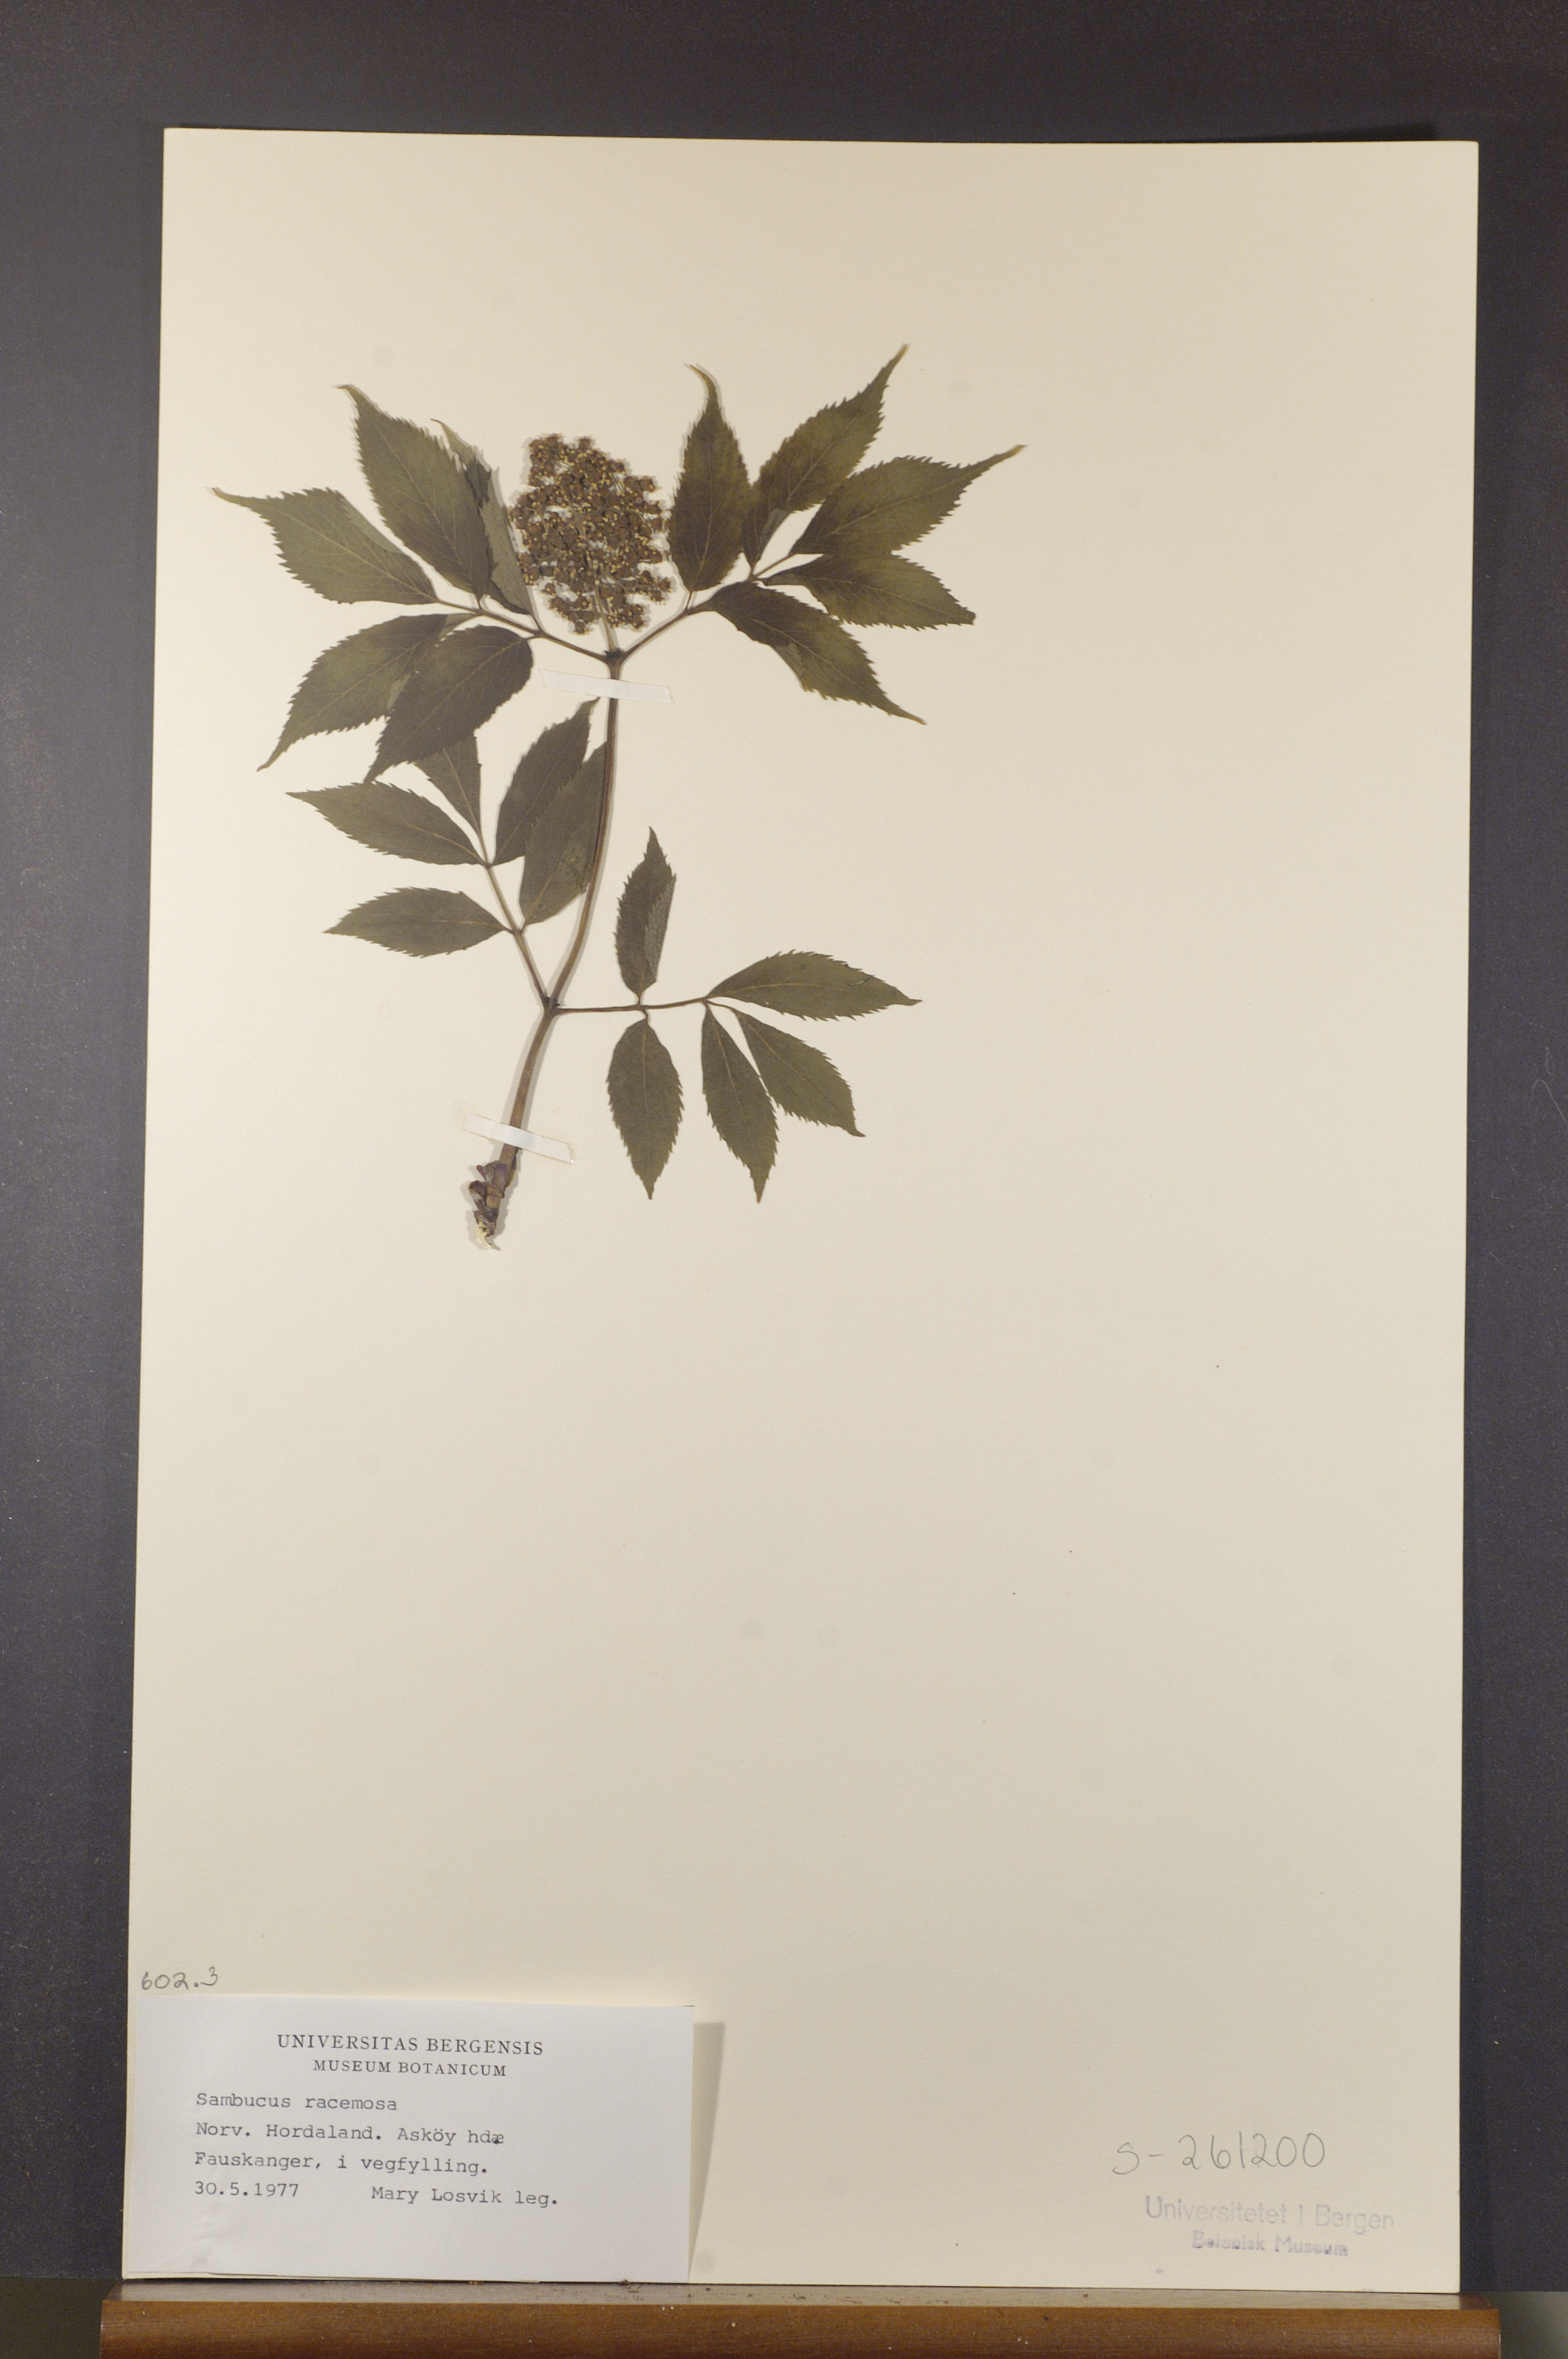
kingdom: Plantae
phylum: Tracheophyta
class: Magnoliopsida
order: Dipsacales
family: Viburnaceae
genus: Sambucus
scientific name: Sambucus racemosa
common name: Red-berried elder
